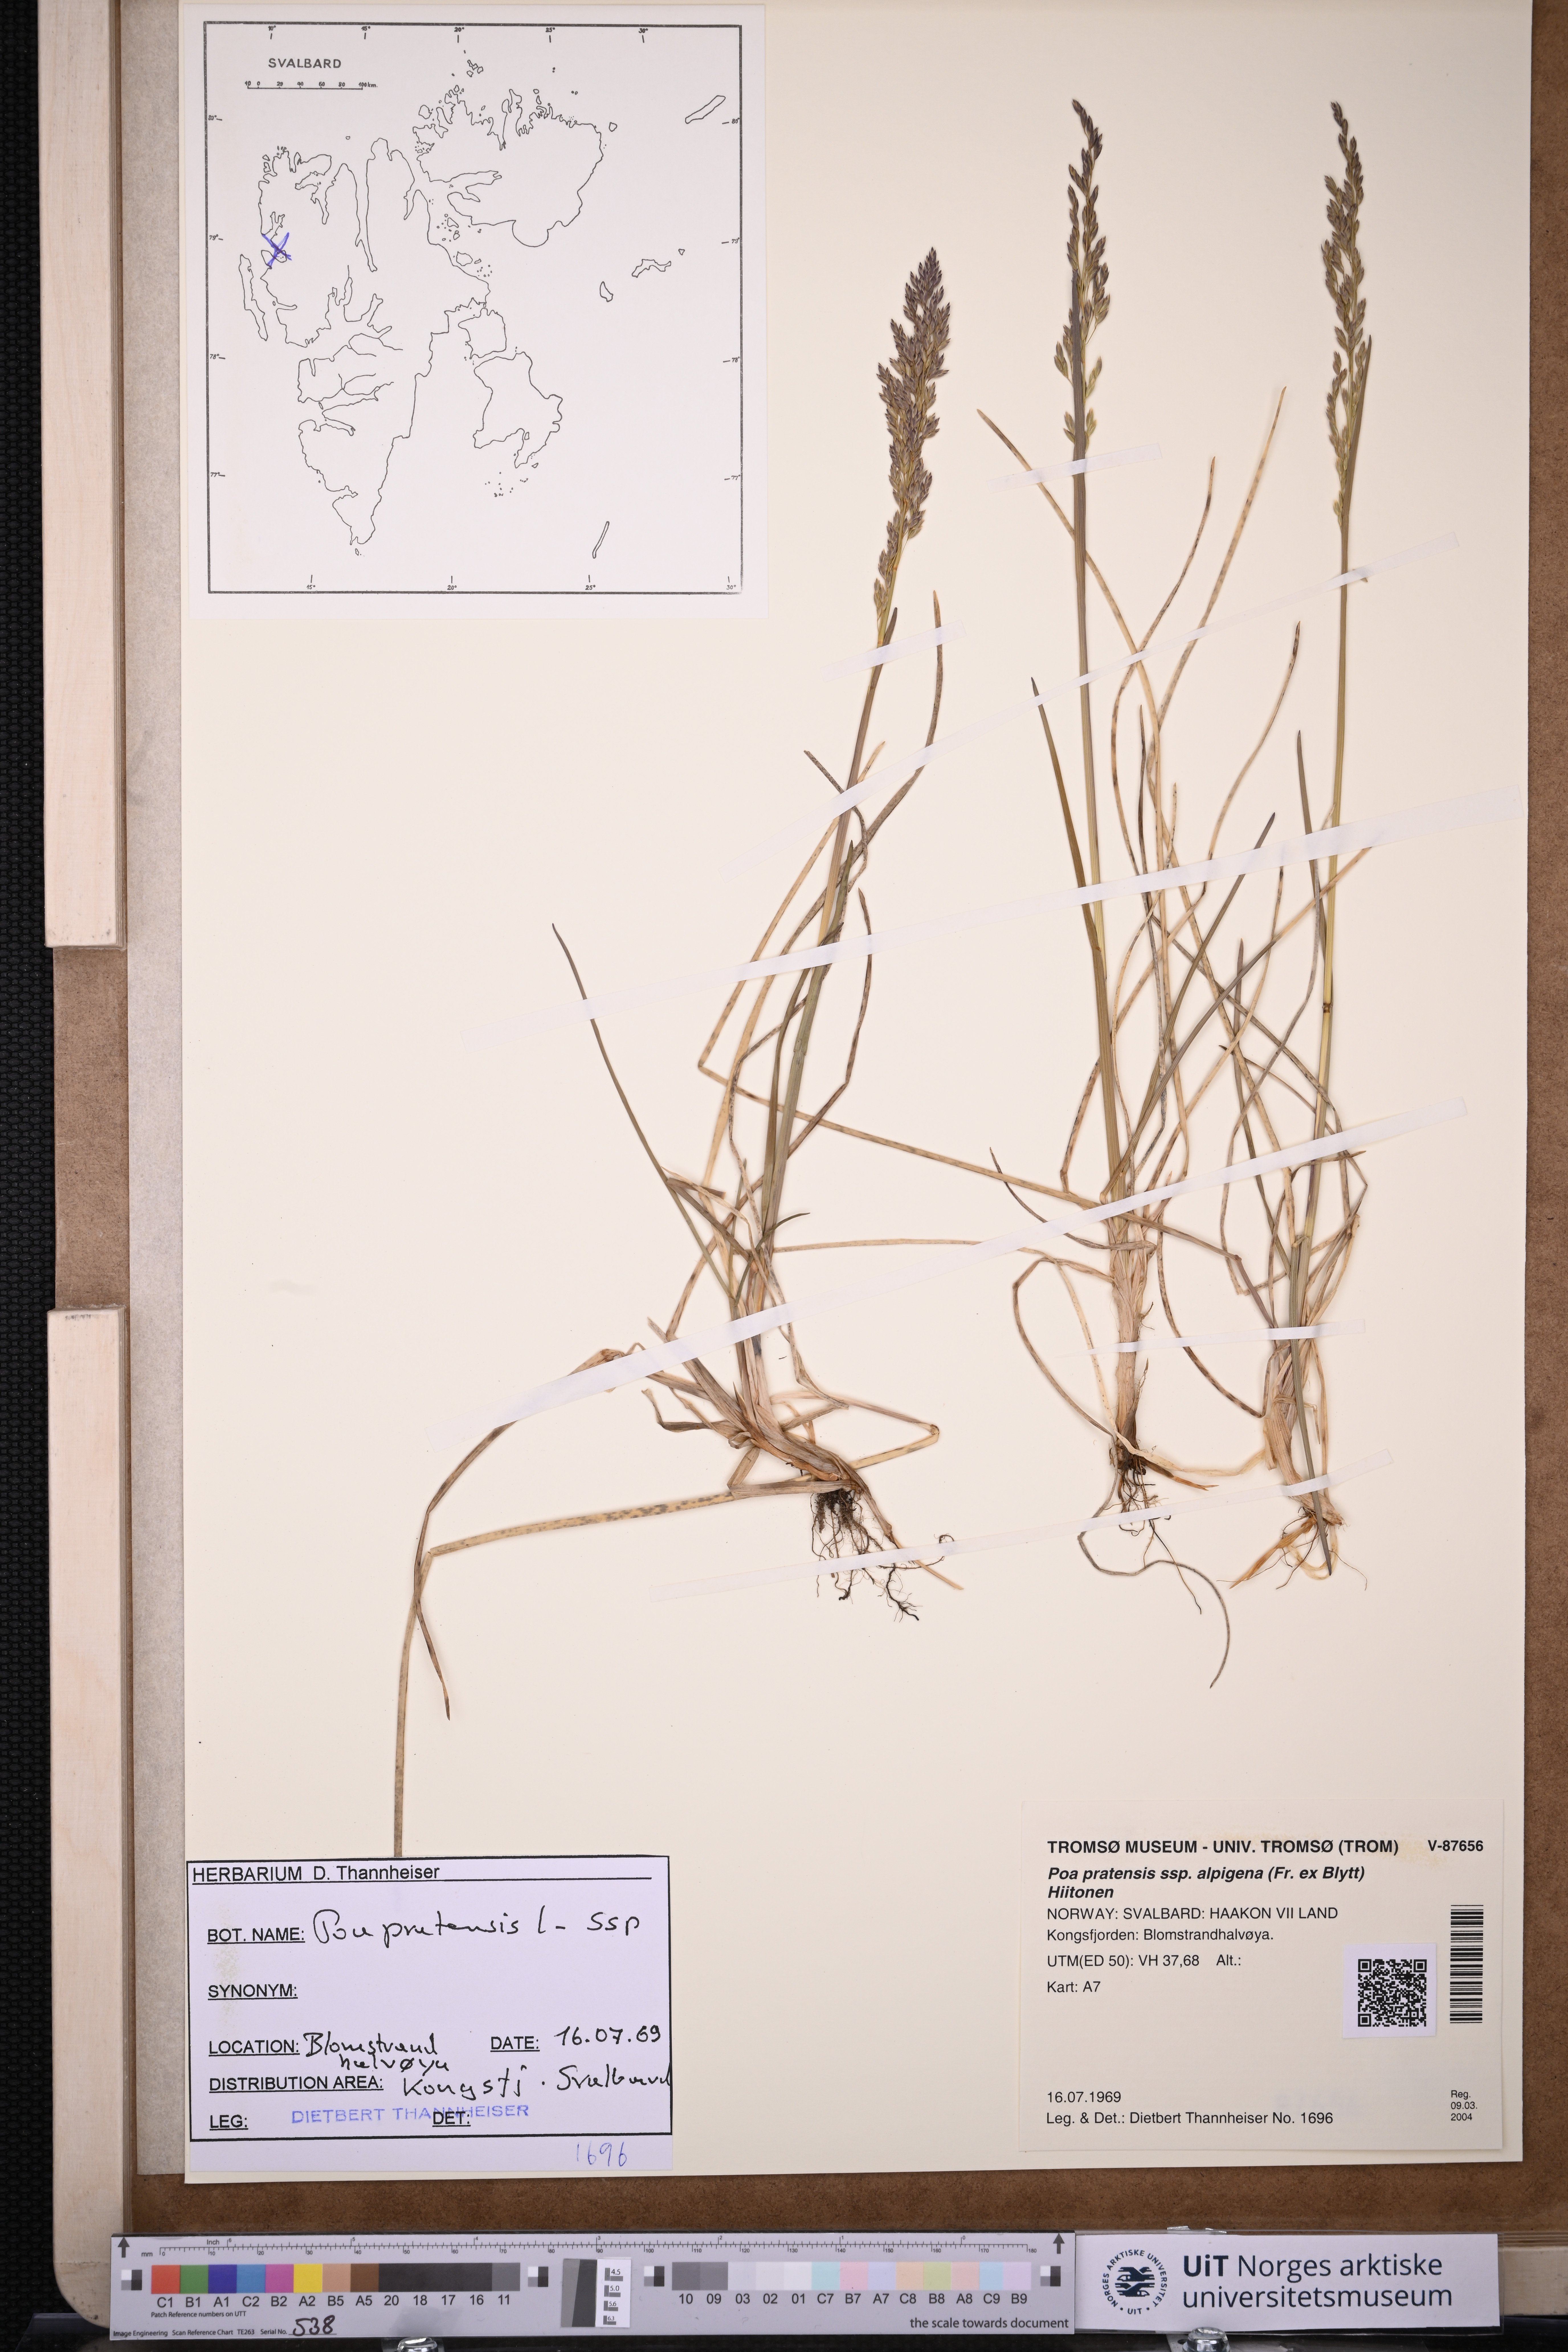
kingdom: Plantae
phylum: Tracheophyta
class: Liliopsida
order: Poales
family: Poaceae
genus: Poa
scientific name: Poa alpigena
